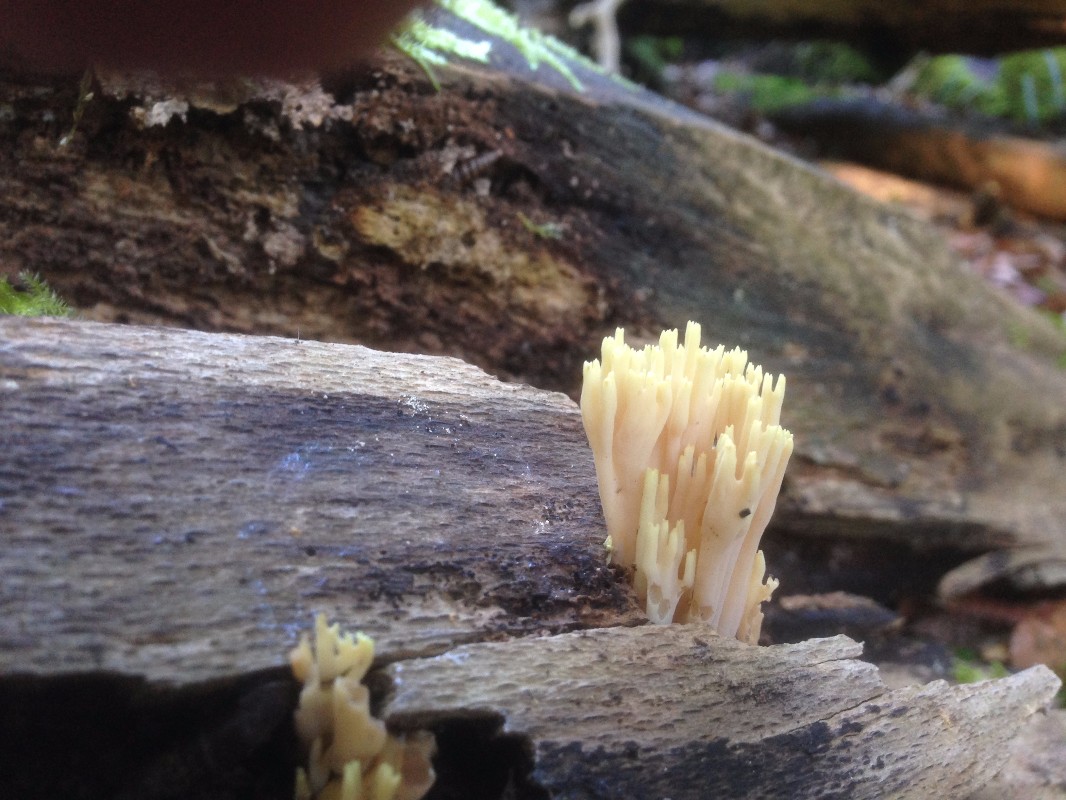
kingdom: Fungi
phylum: Basidiomycota
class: Agaricomycetes
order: Gomphales
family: Gomphaceae
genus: Ramaria
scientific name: Ramaria stricta
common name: rank koralsvamp
